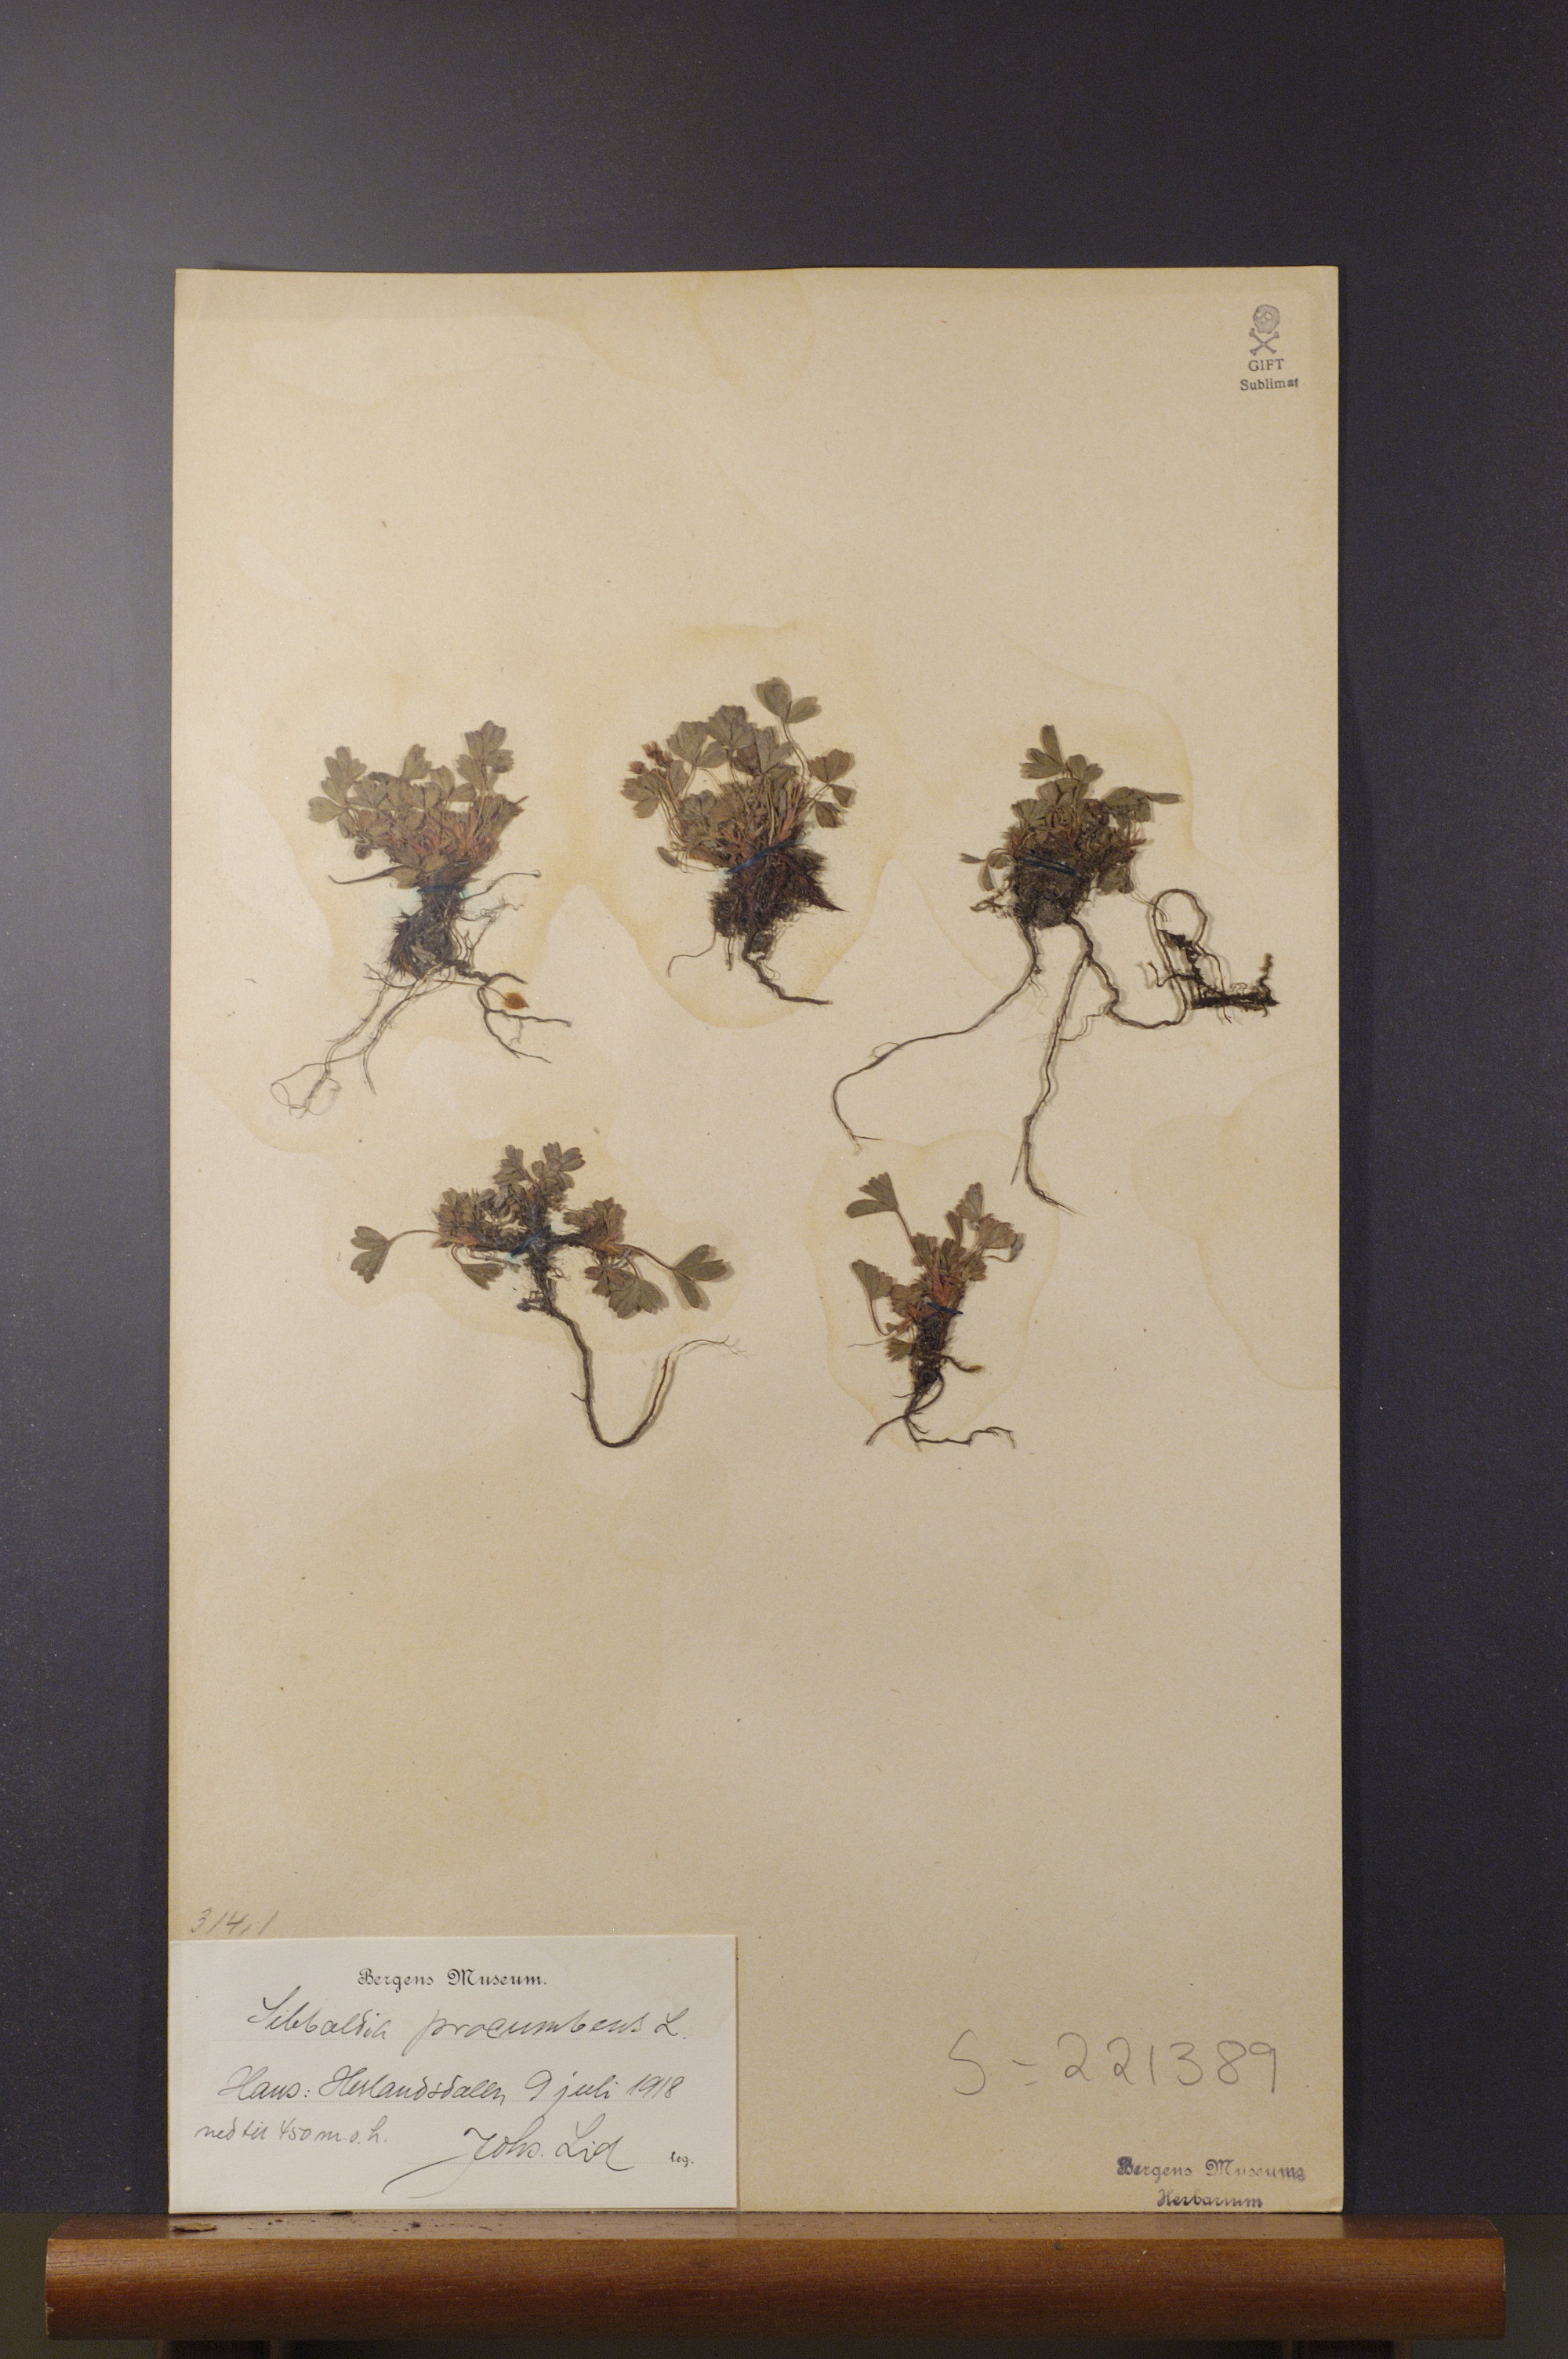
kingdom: Plantae
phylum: Tracheophyta
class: Magnoliopsida
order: Rosales
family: Rosaceae
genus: Sibbaldia
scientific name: Sibbaldia procumbens
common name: Creeping sibbaldia
